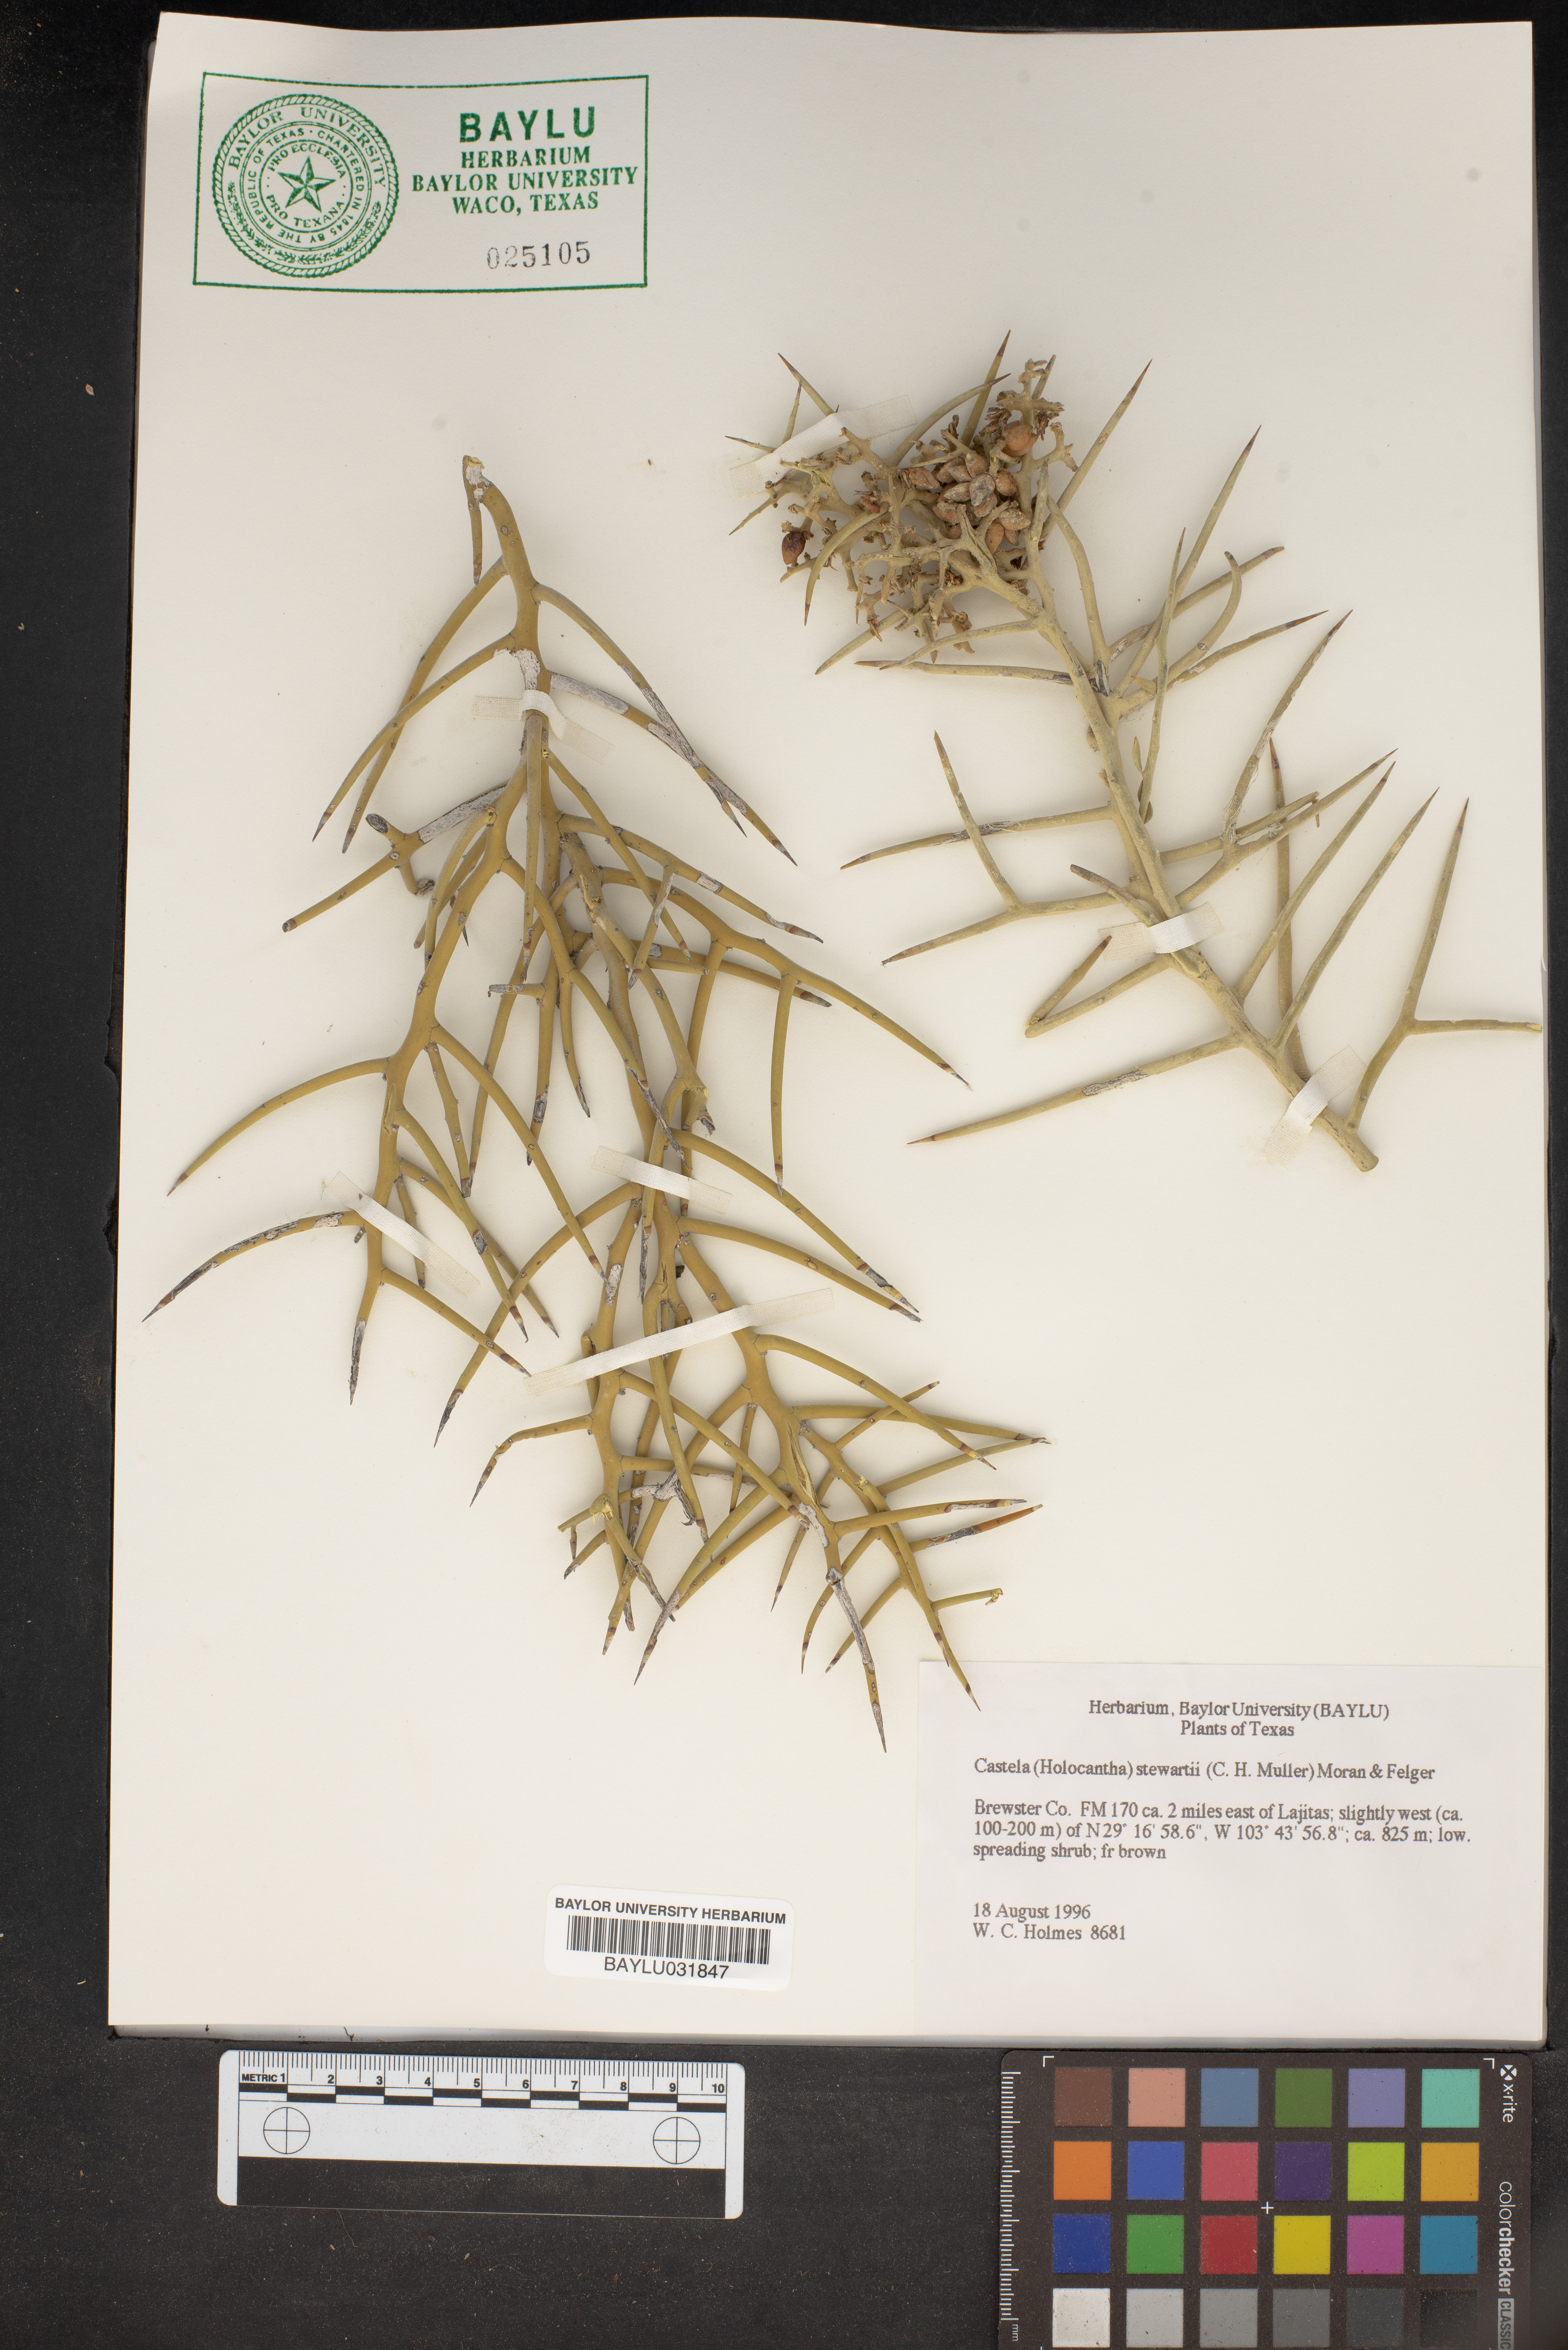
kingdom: Plantae
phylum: Tracheophyta
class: Magnoliopsida
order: Sapindales
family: Simaroubaceae
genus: Holacantha
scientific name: Holacantha stewartii
